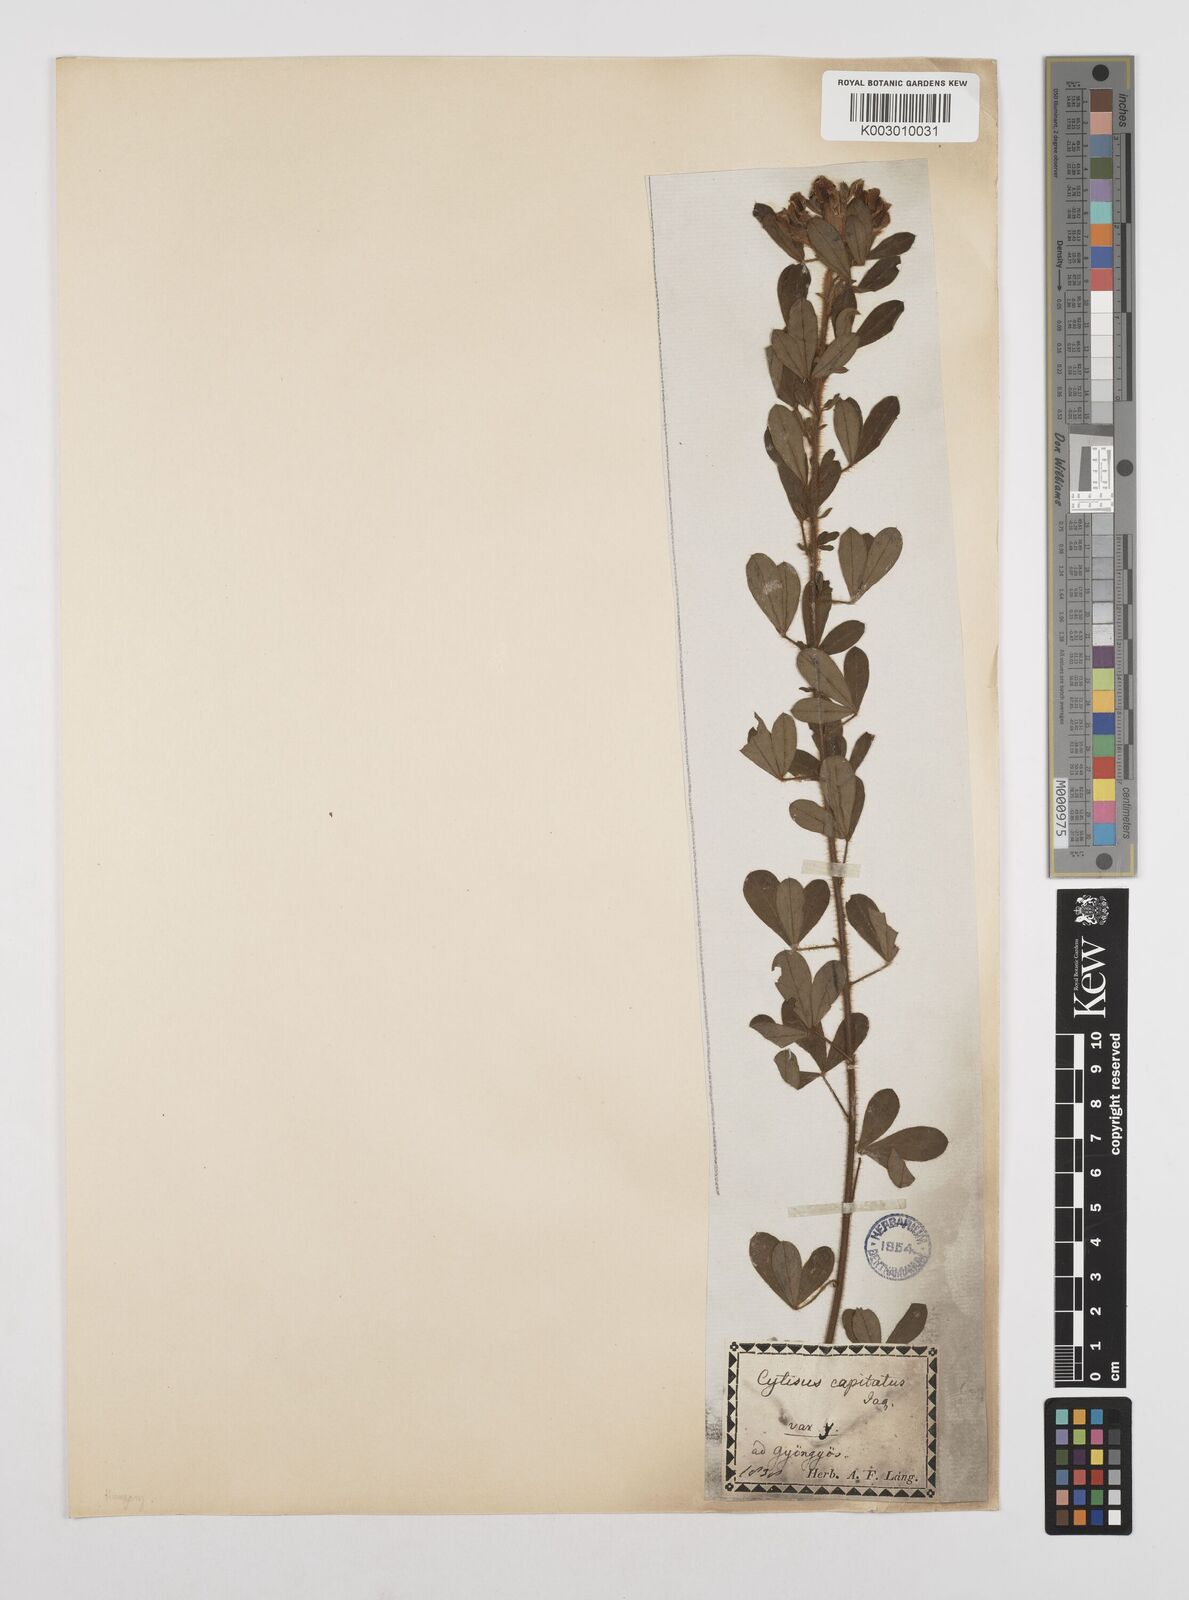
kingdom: Plantae
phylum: Tracheophyta
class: Magnoliopsida
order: Fabales
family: Fabaceae
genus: Chamaecytisus
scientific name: Chamaecytisus hirsutus
